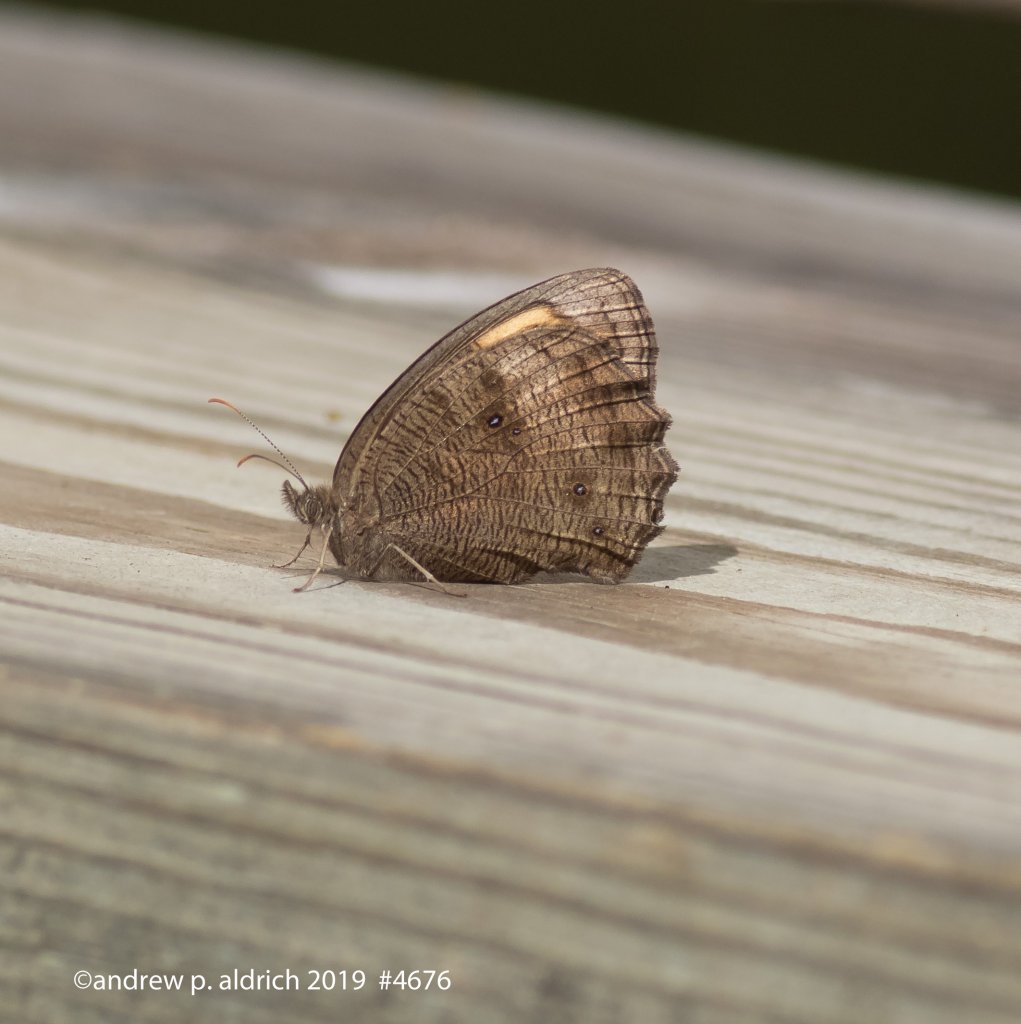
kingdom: Animalia
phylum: Arthropoda
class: Insecta
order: Lepidoptera
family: Nymphalidae
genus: Cercyonis
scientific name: Cercyonis pegala
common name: Common Wood-Nymph
